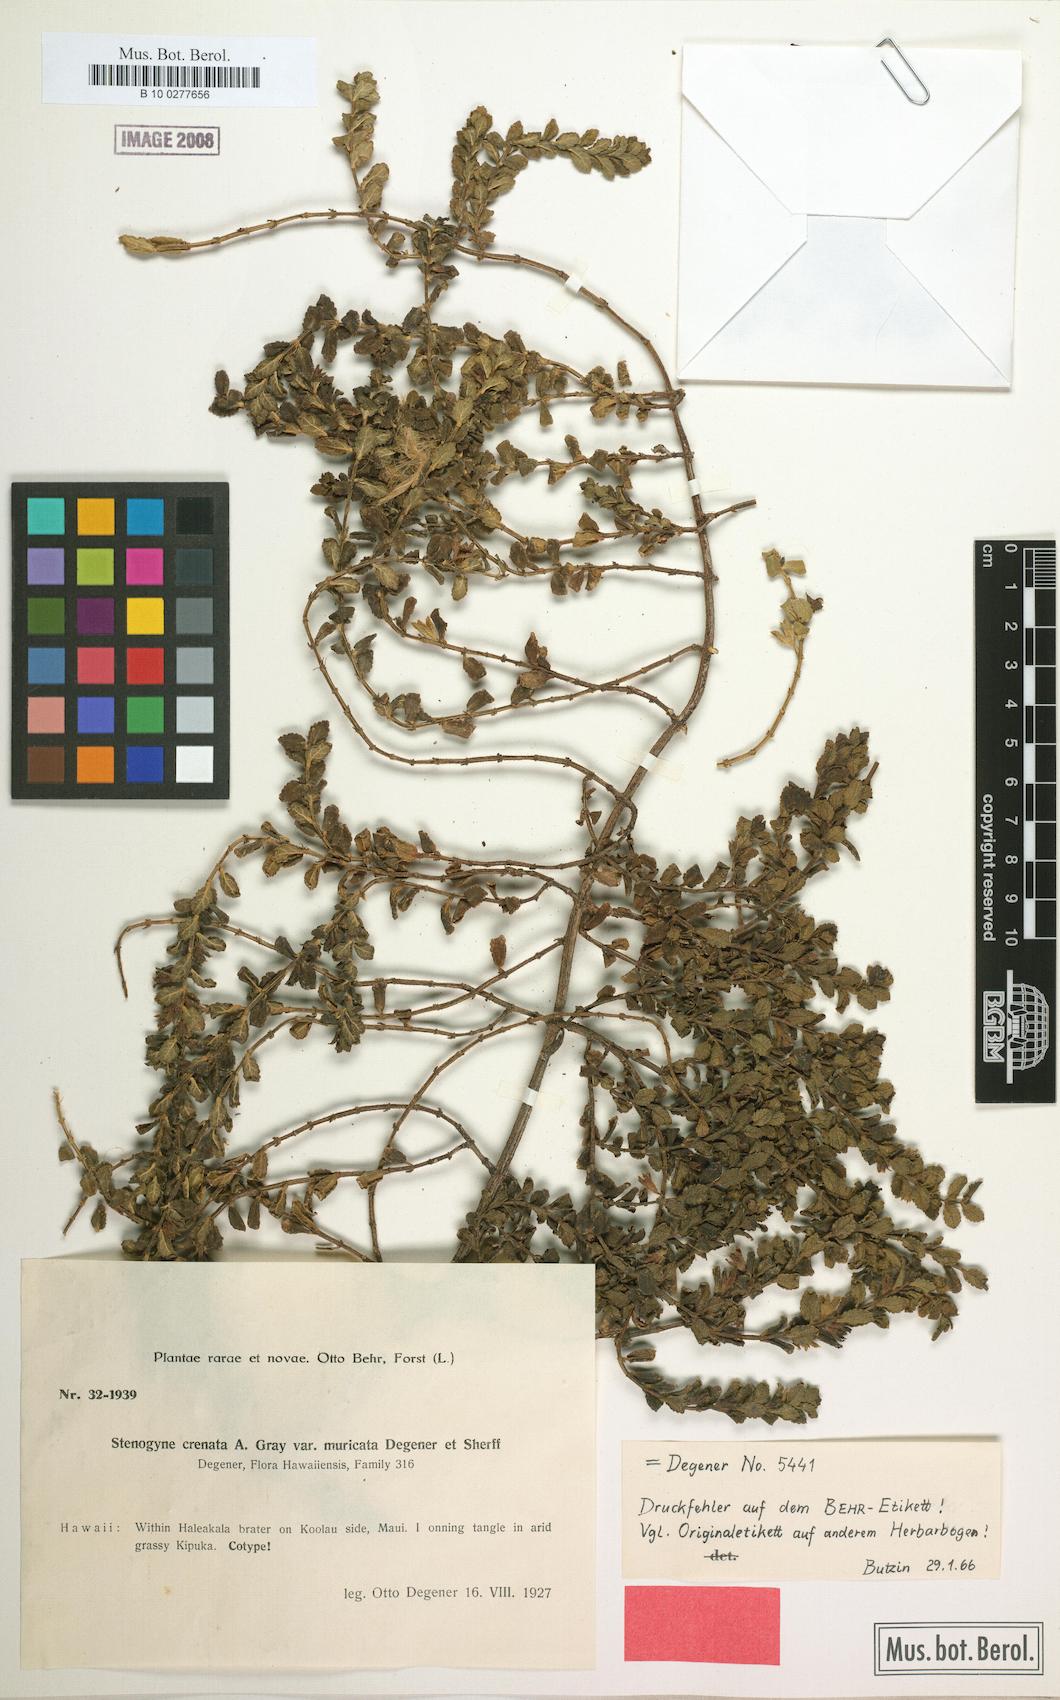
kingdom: Plantae
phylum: Tracheophyta
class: Magnoliopsida
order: Lamiales
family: Lamiaceae
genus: Stenogyne
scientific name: Stenogyne microphylla
